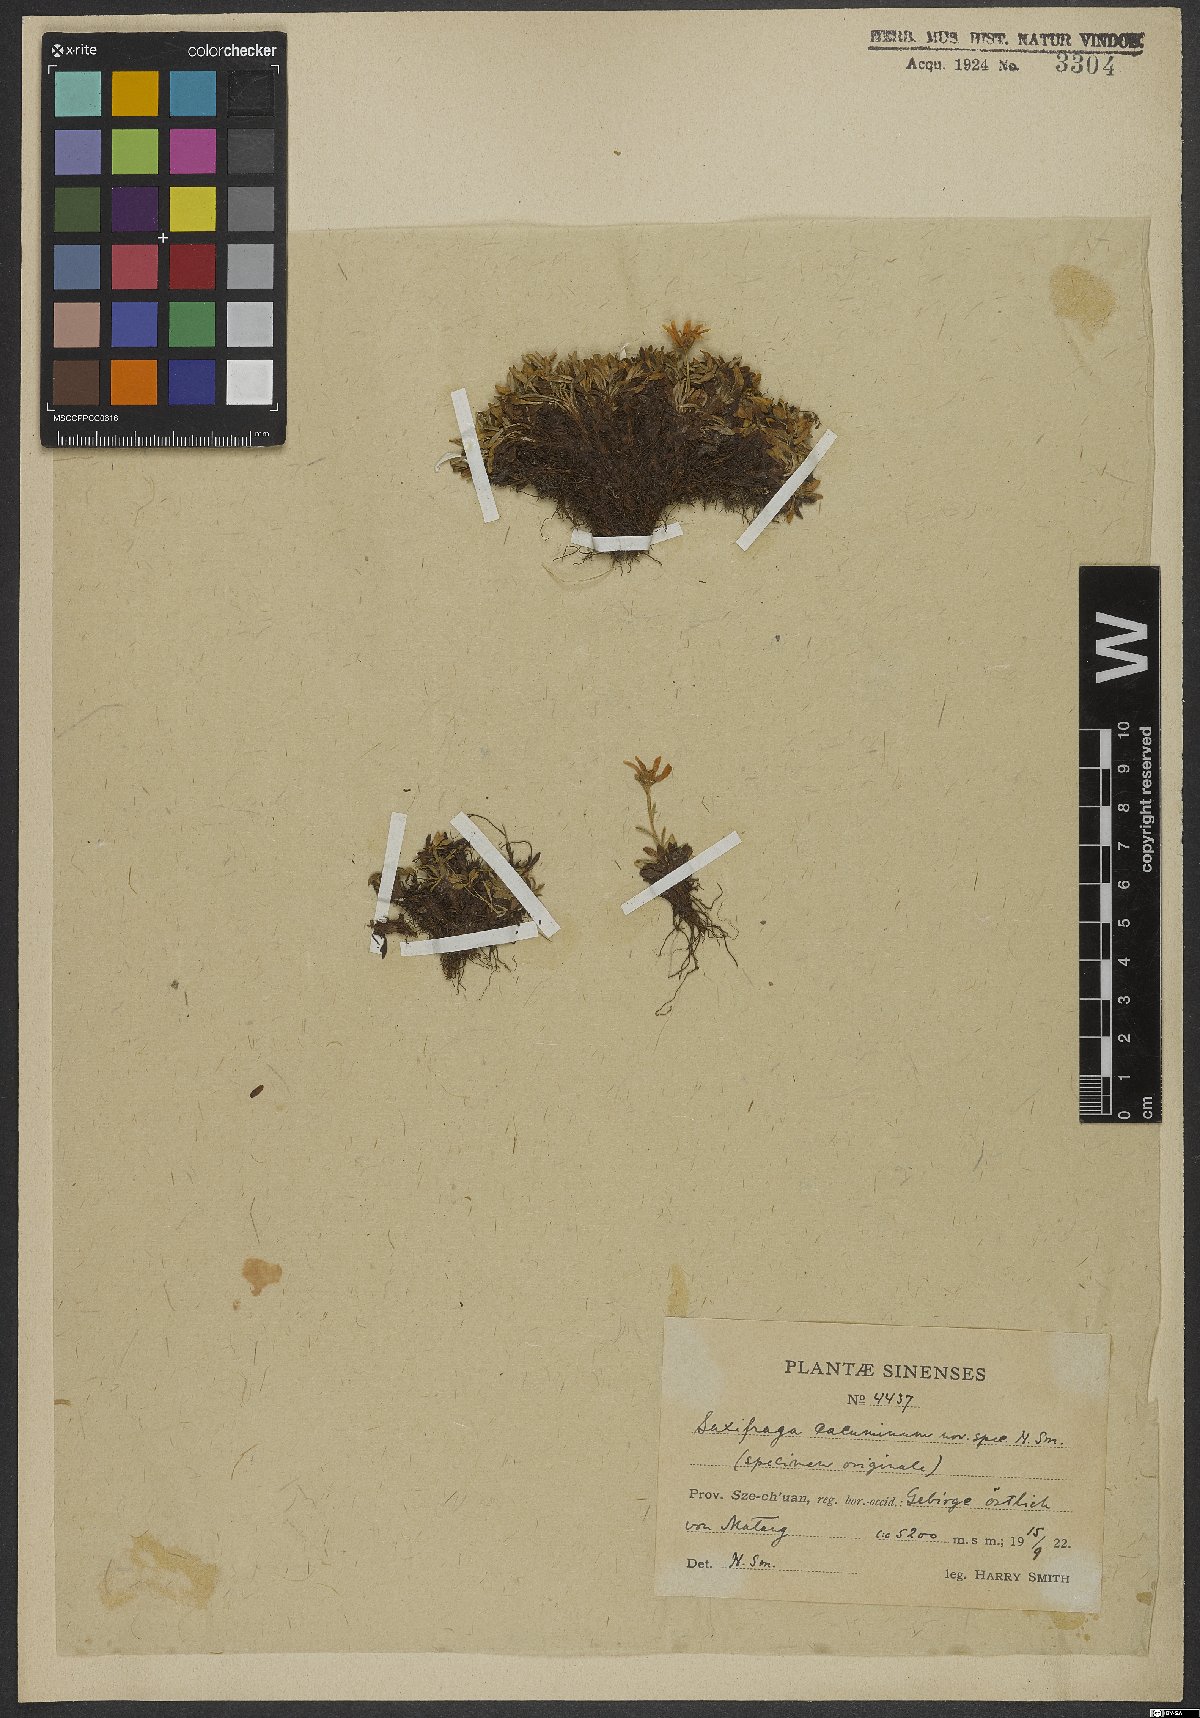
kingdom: Plantae
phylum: Tracheophyta
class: Magnoliopsida
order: Saxifragales
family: Saxifragaceae
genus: Saxifraga
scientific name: Saxifraga cacuminum
